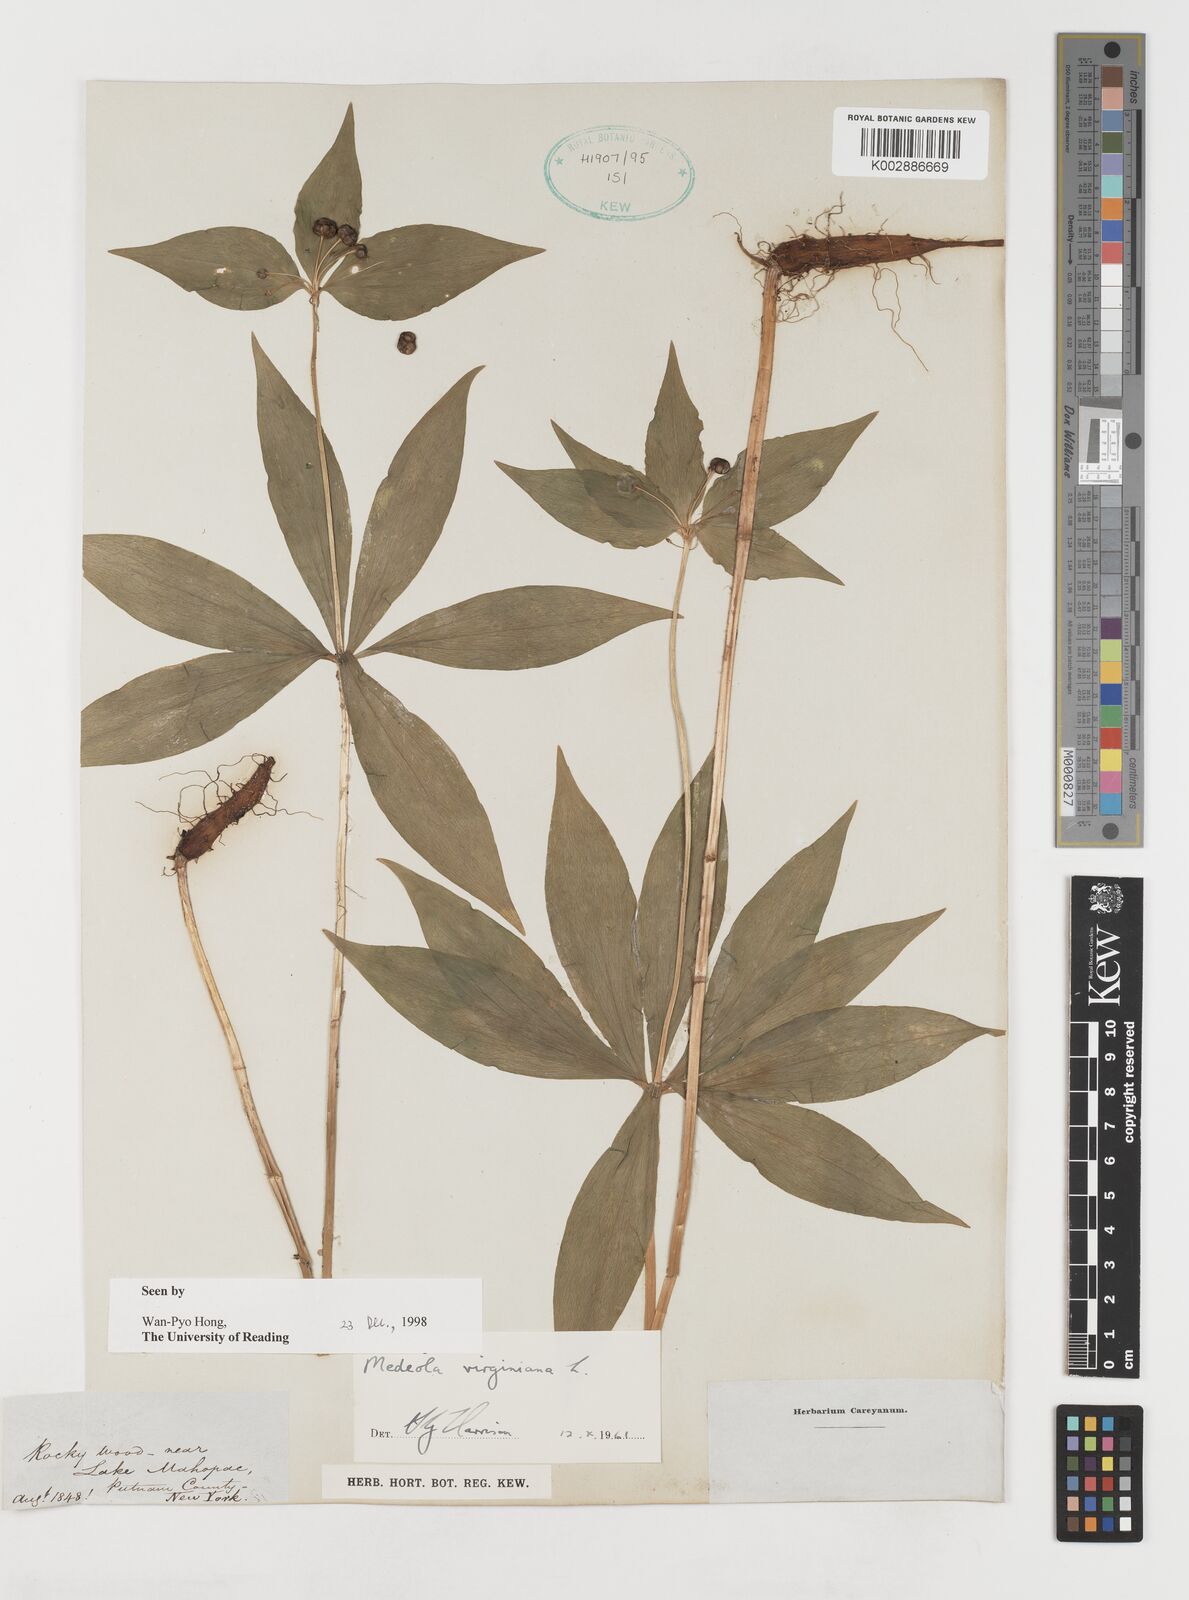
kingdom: Plantae
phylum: Tracheophyta
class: Liliopsida
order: Liliales
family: Liliaceae
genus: Medeola
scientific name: Medeola virginiana
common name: Indian cucumber-root
